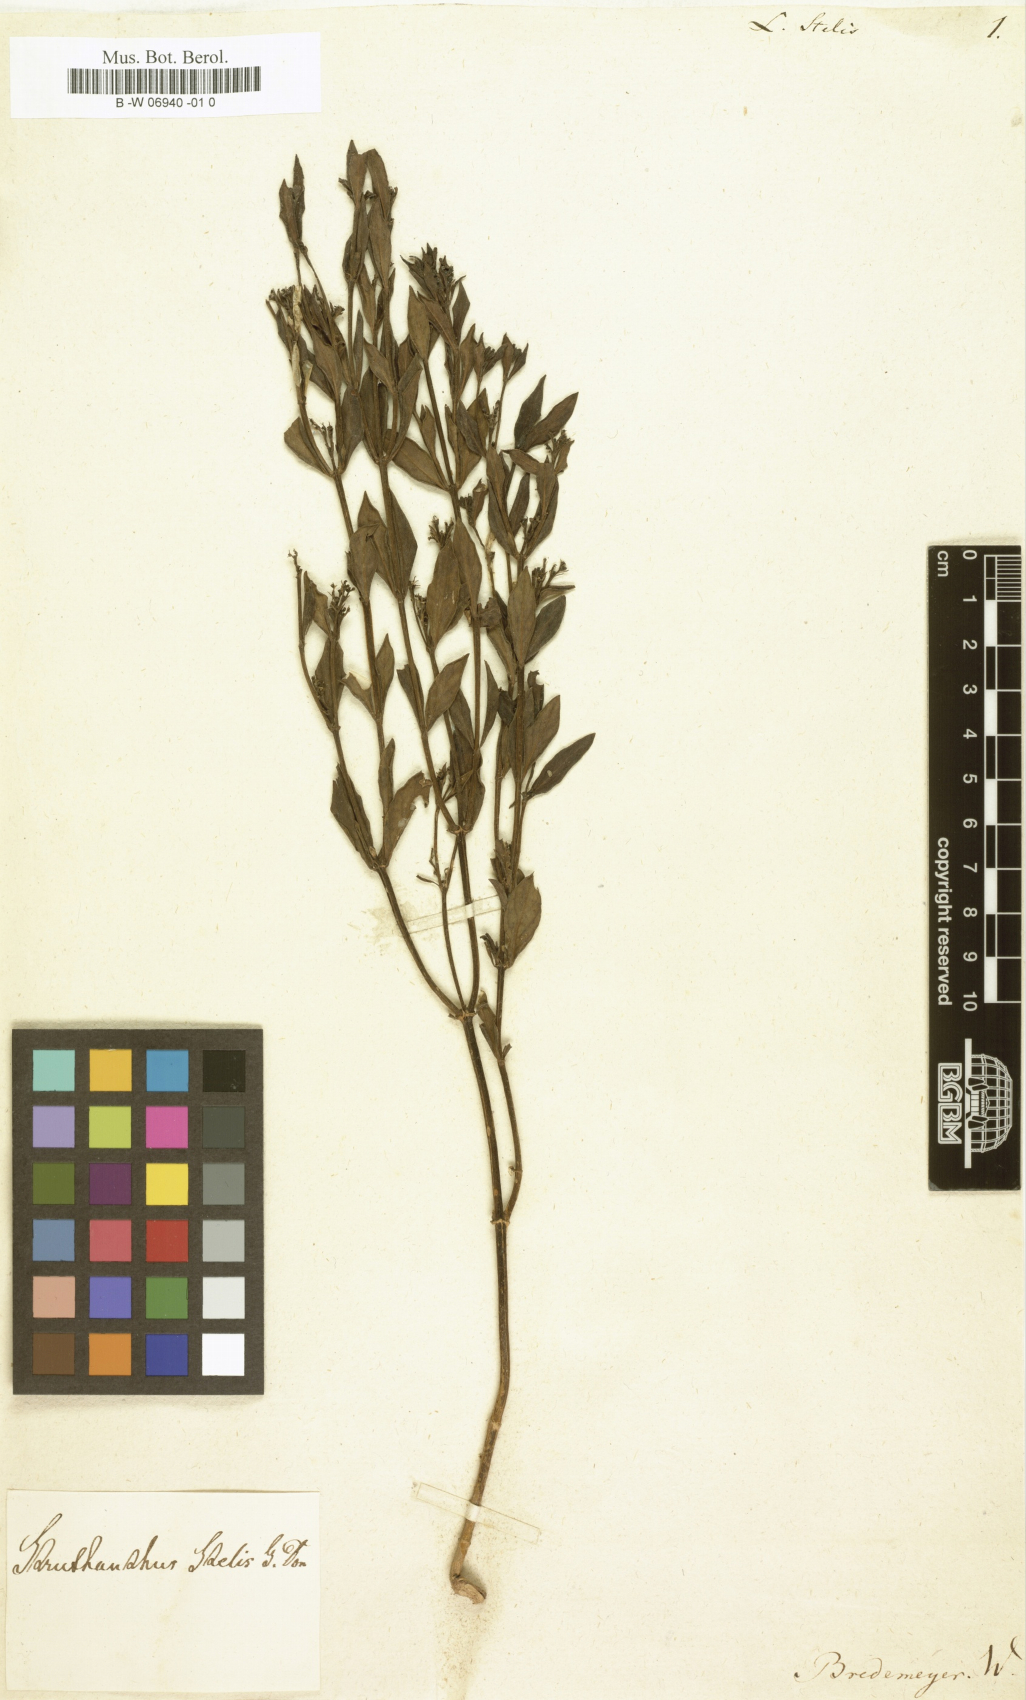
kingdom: Plantae
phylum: Tracheophyta
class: Magnoliopsida
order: Santalales
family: Loranthaceae
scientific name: Loranthaceae
